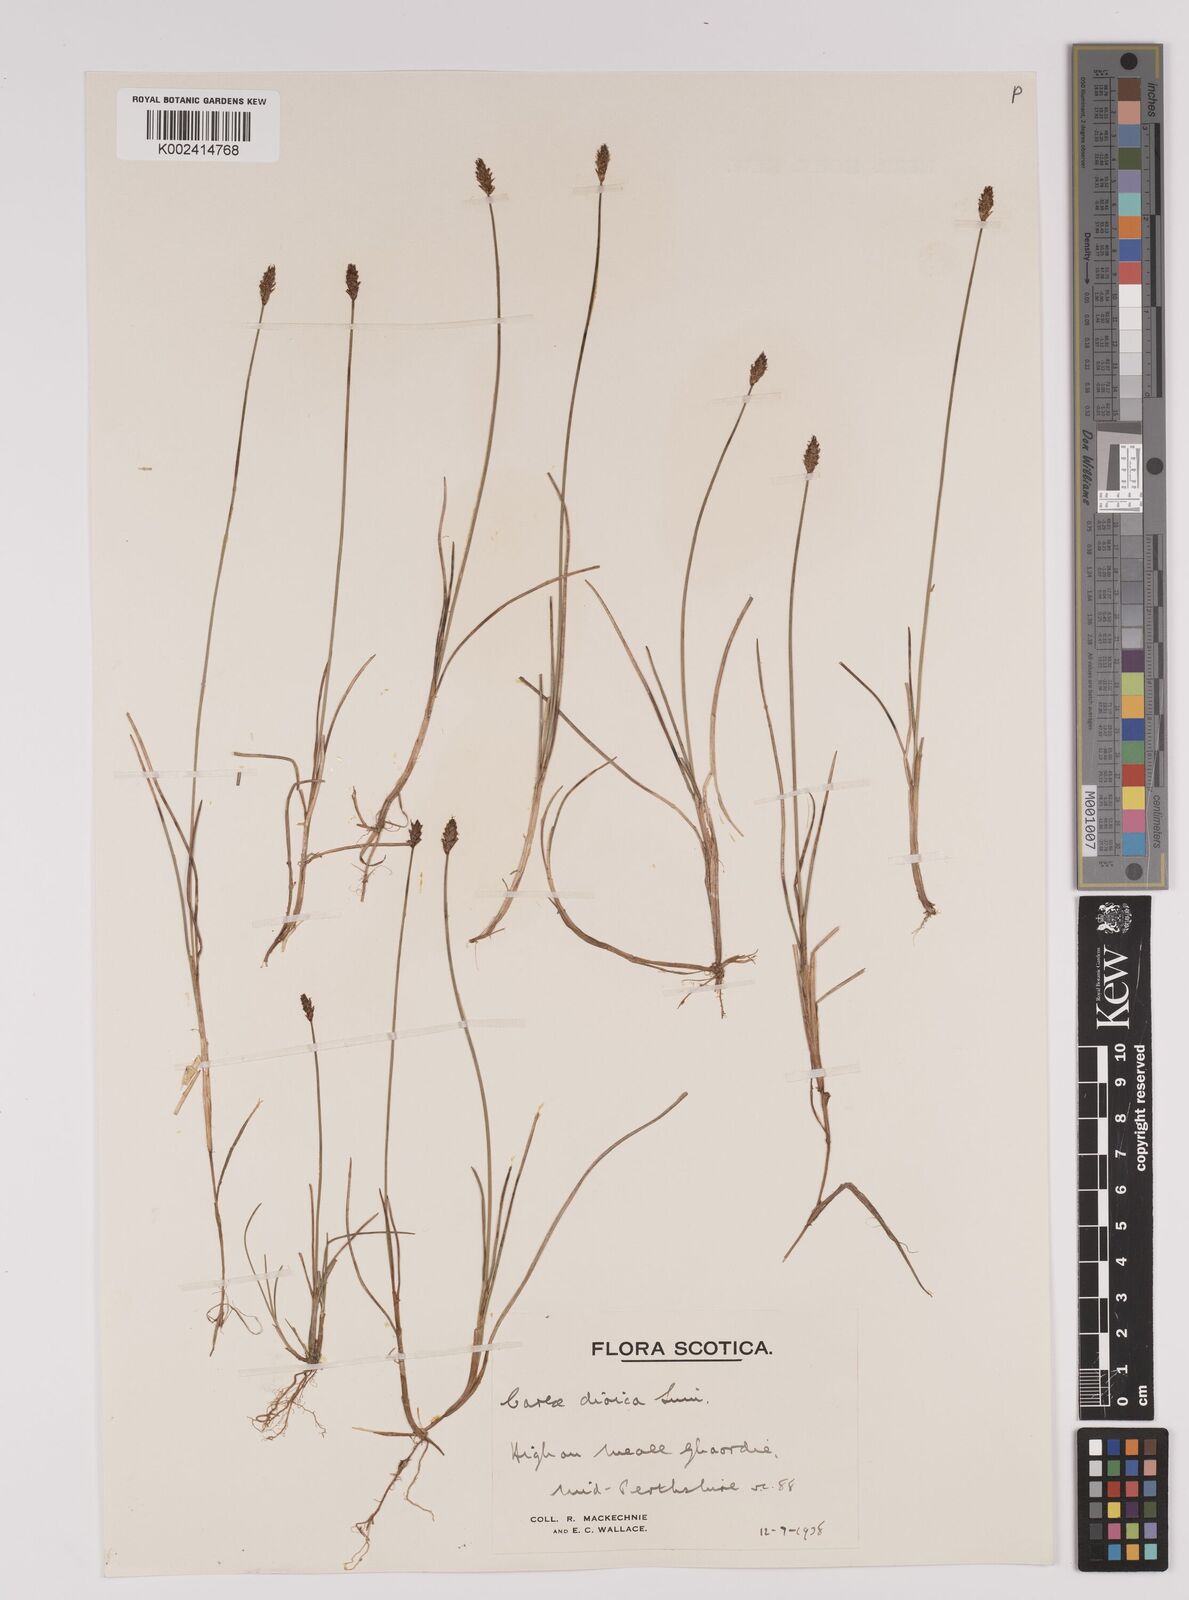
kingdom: Plantae
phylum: Tracheophyta
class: Liliopsida
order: Poales
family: Cyperaceae
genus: Carex
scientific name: Carex dioica
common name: Dioecious sedge
